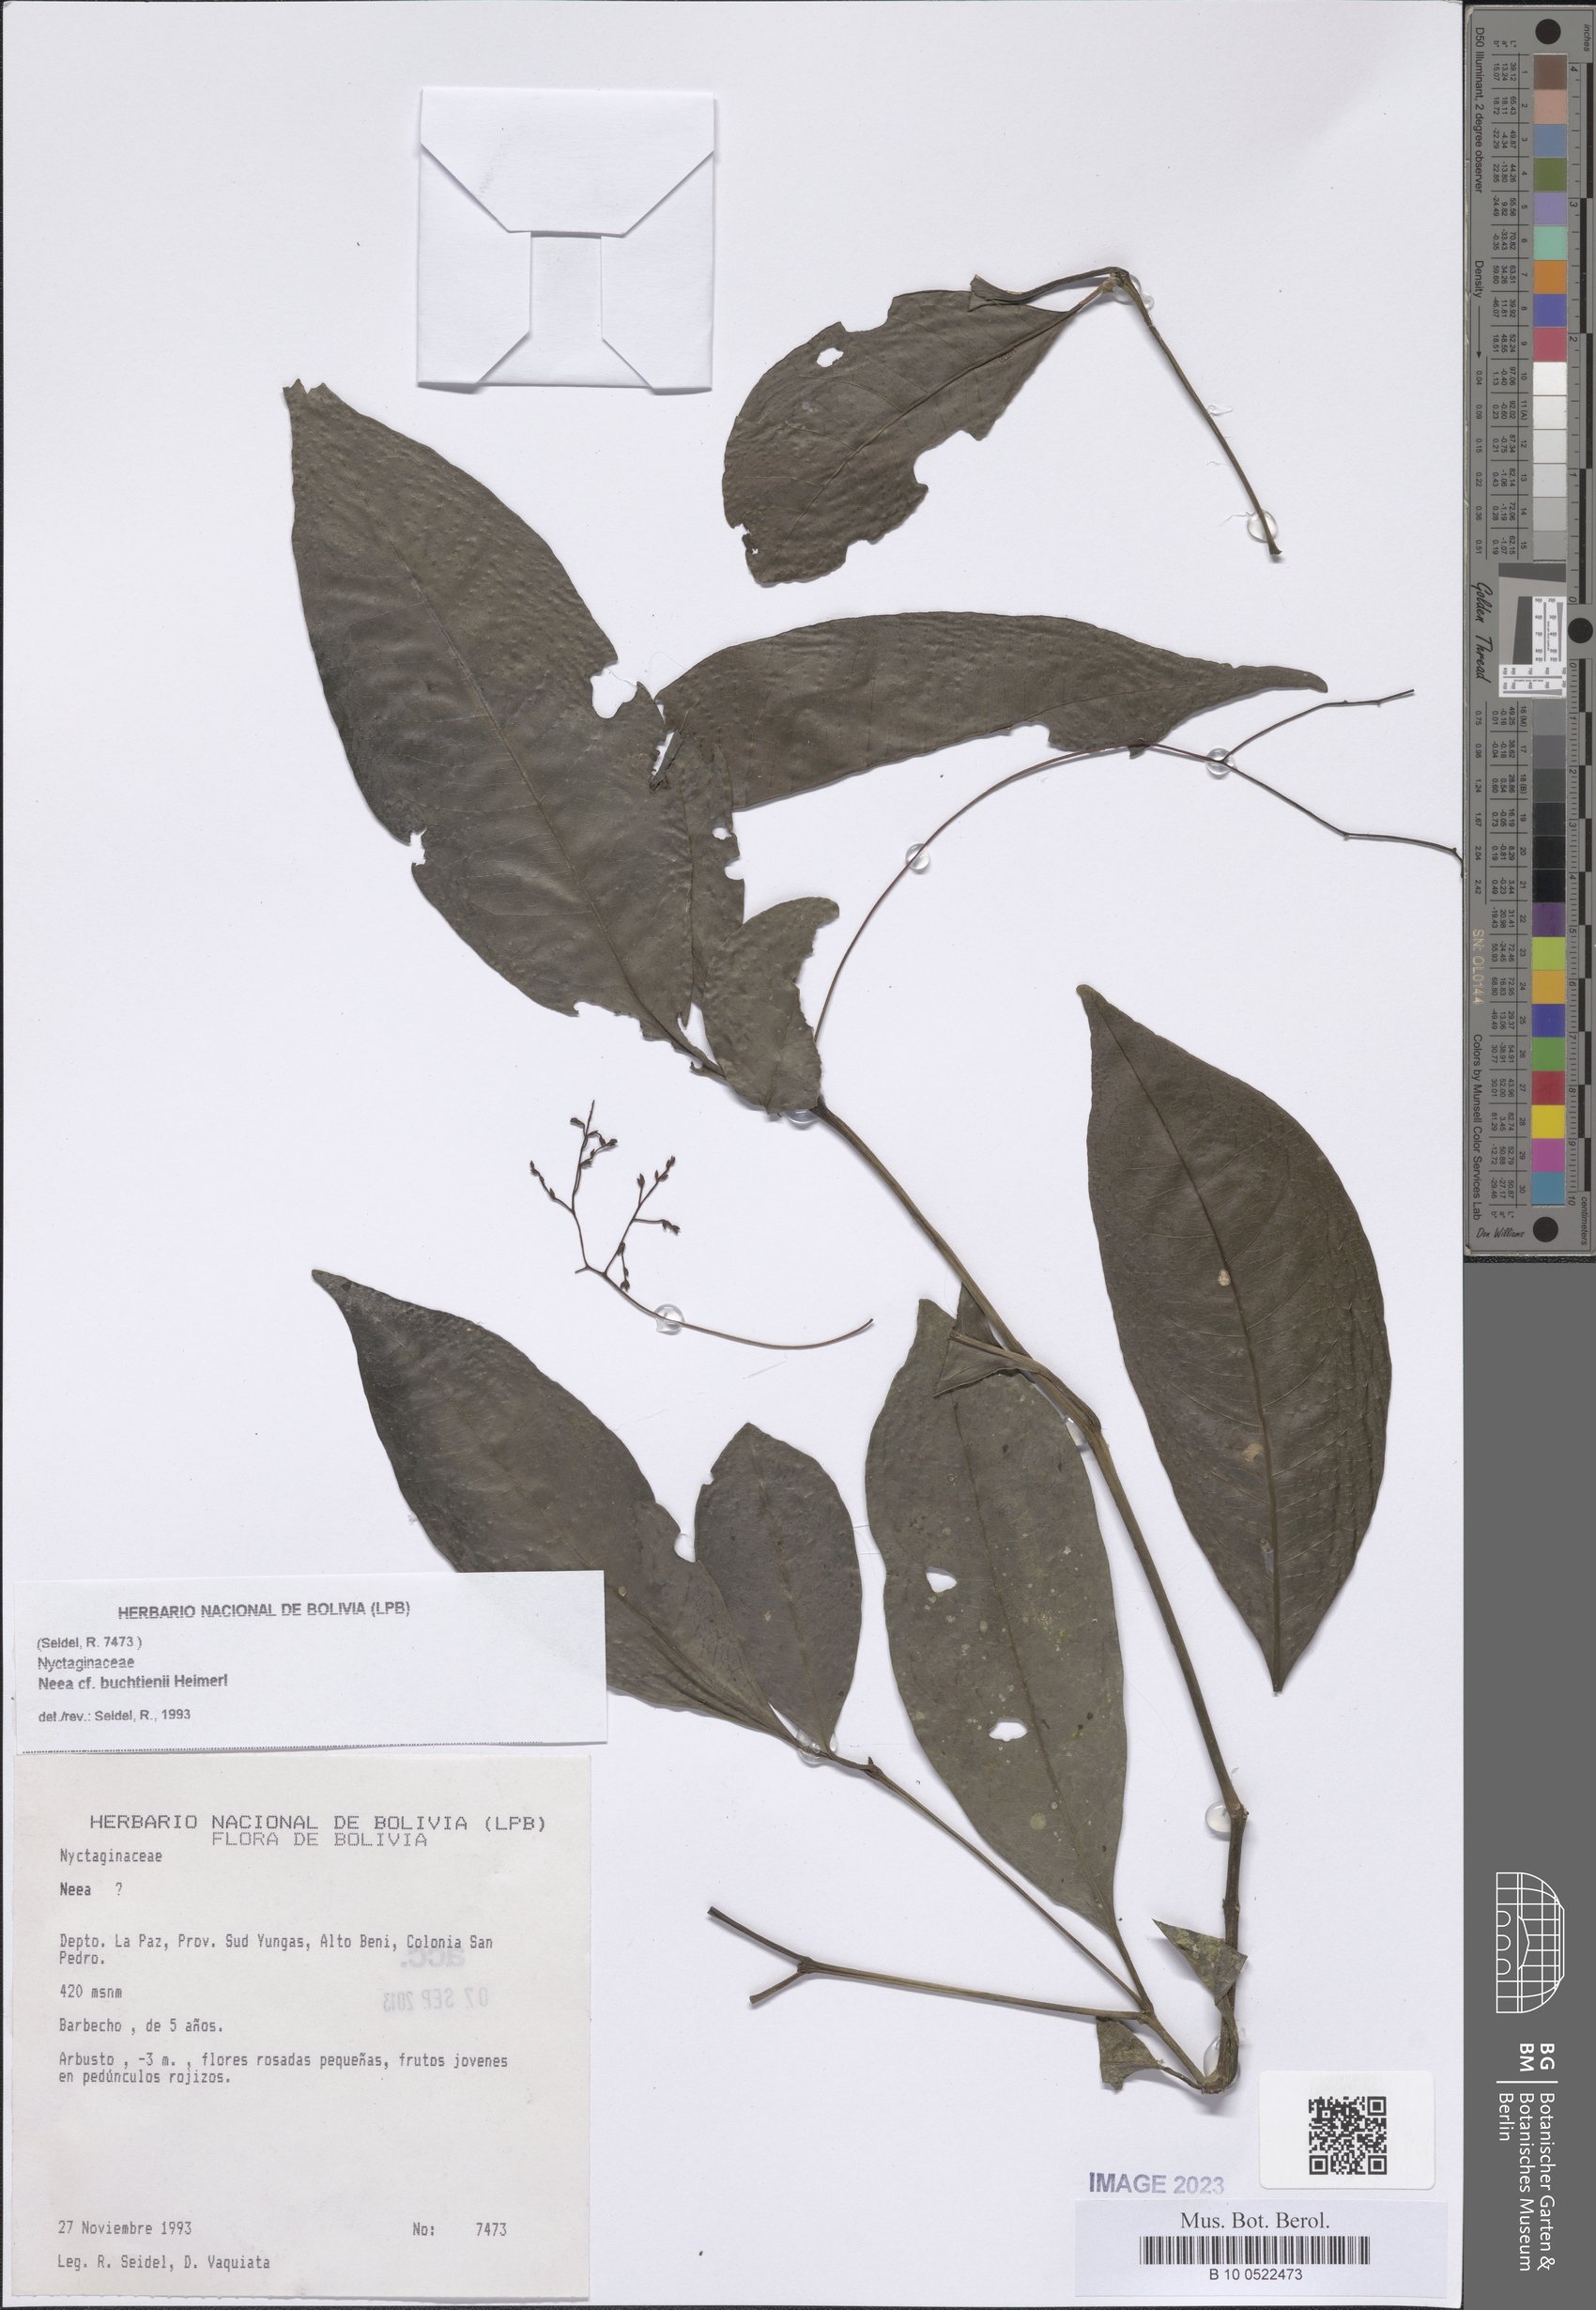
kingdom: Plantae
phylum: Tracheophyta
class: Magnoliopsida
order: Caryophyllales
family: Nyctaginaceae
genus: Neea
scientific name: Neea
